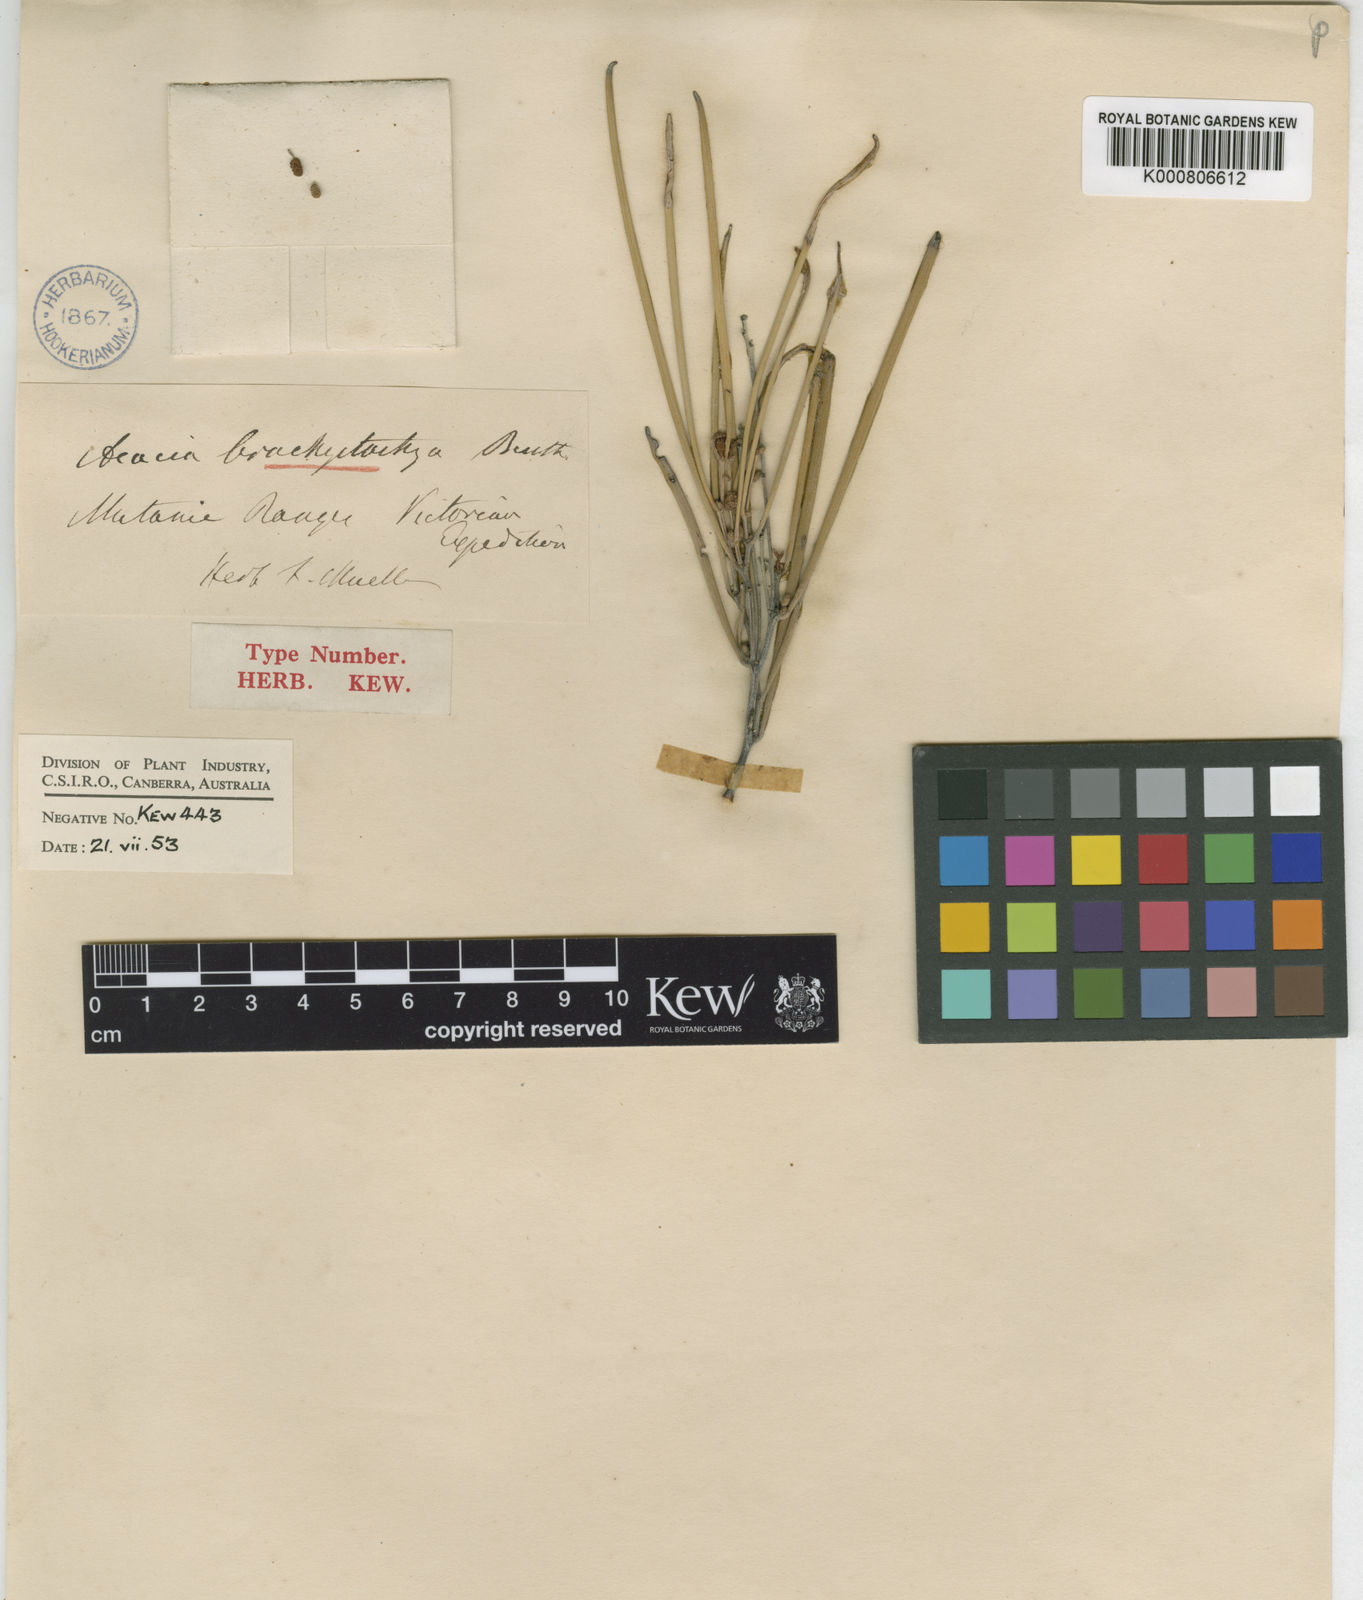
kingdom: Plantae
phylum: Tracheophyta
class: Magnoliopsida
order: Fabales
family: Fabaceae
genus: Acacia
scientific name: Acacia brachystachya
